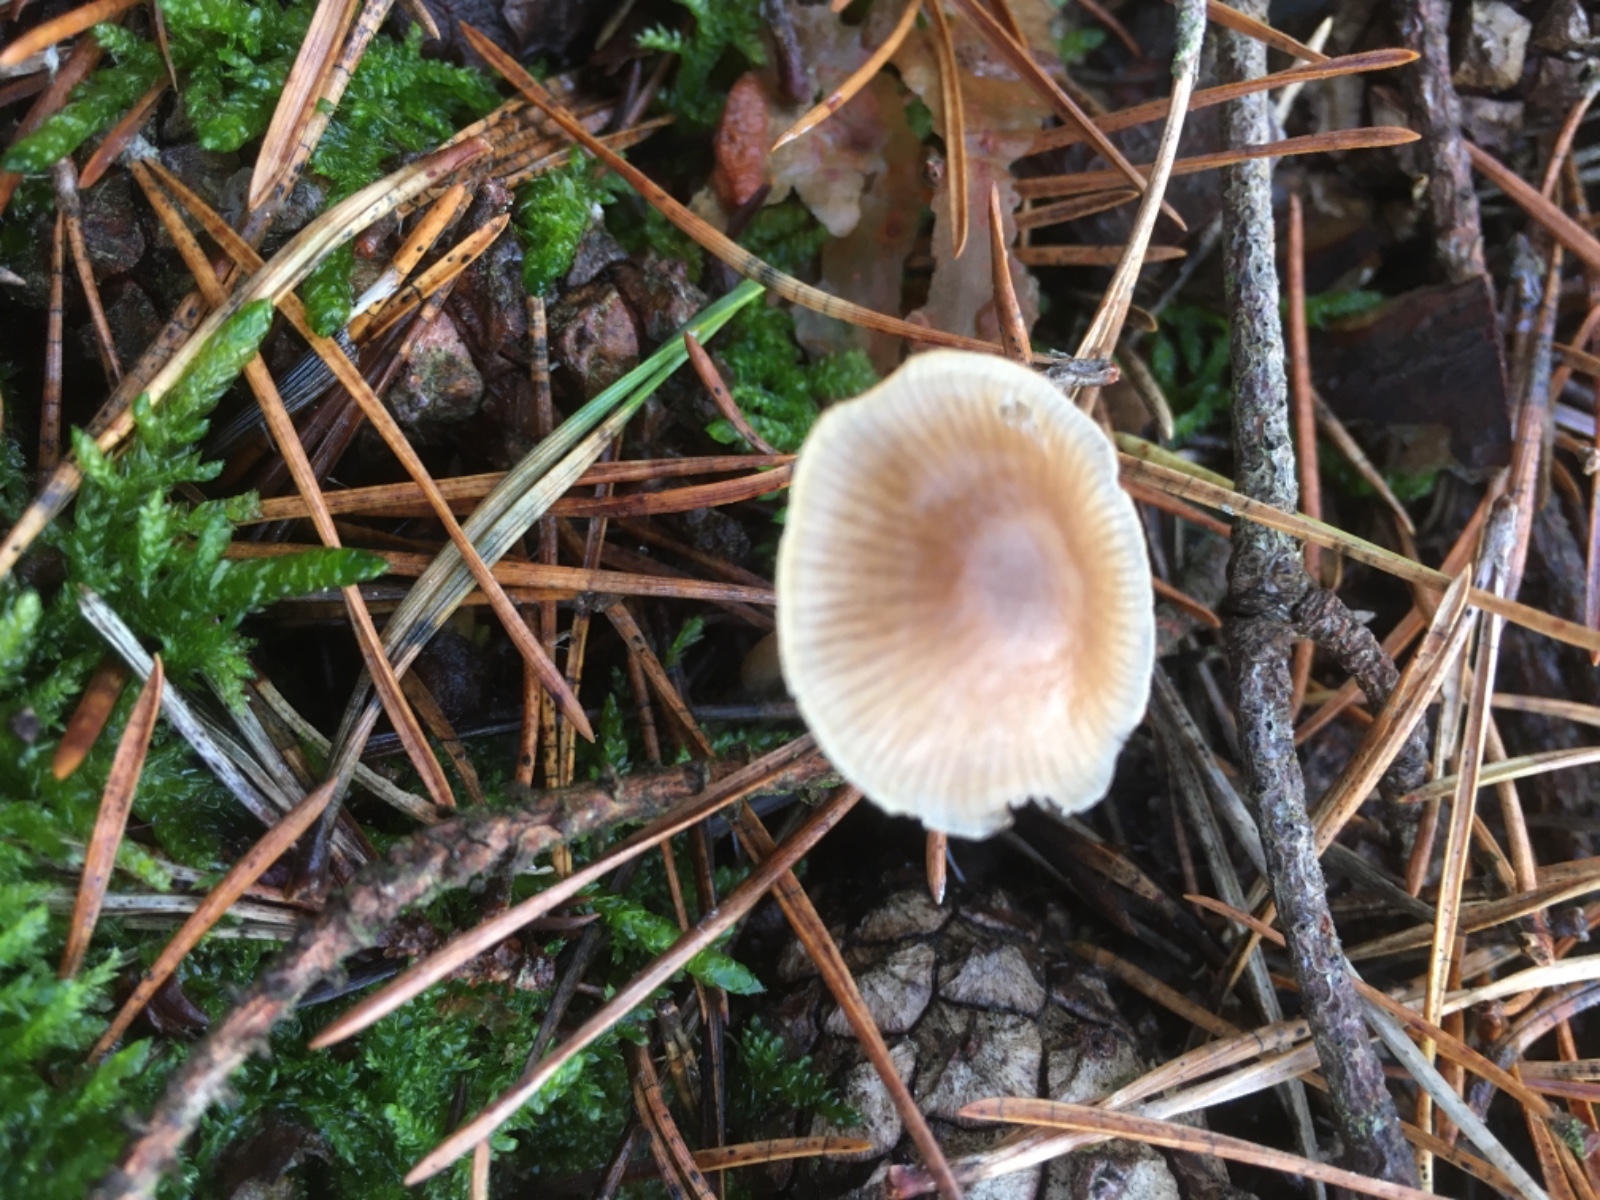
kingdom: Fungi
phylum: Basidiomycota
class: Agaricomycetes
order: Agaricales
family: Entolomataceae
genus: Entoloma
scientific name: Entoloma cetratum
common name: voks-rødblad
